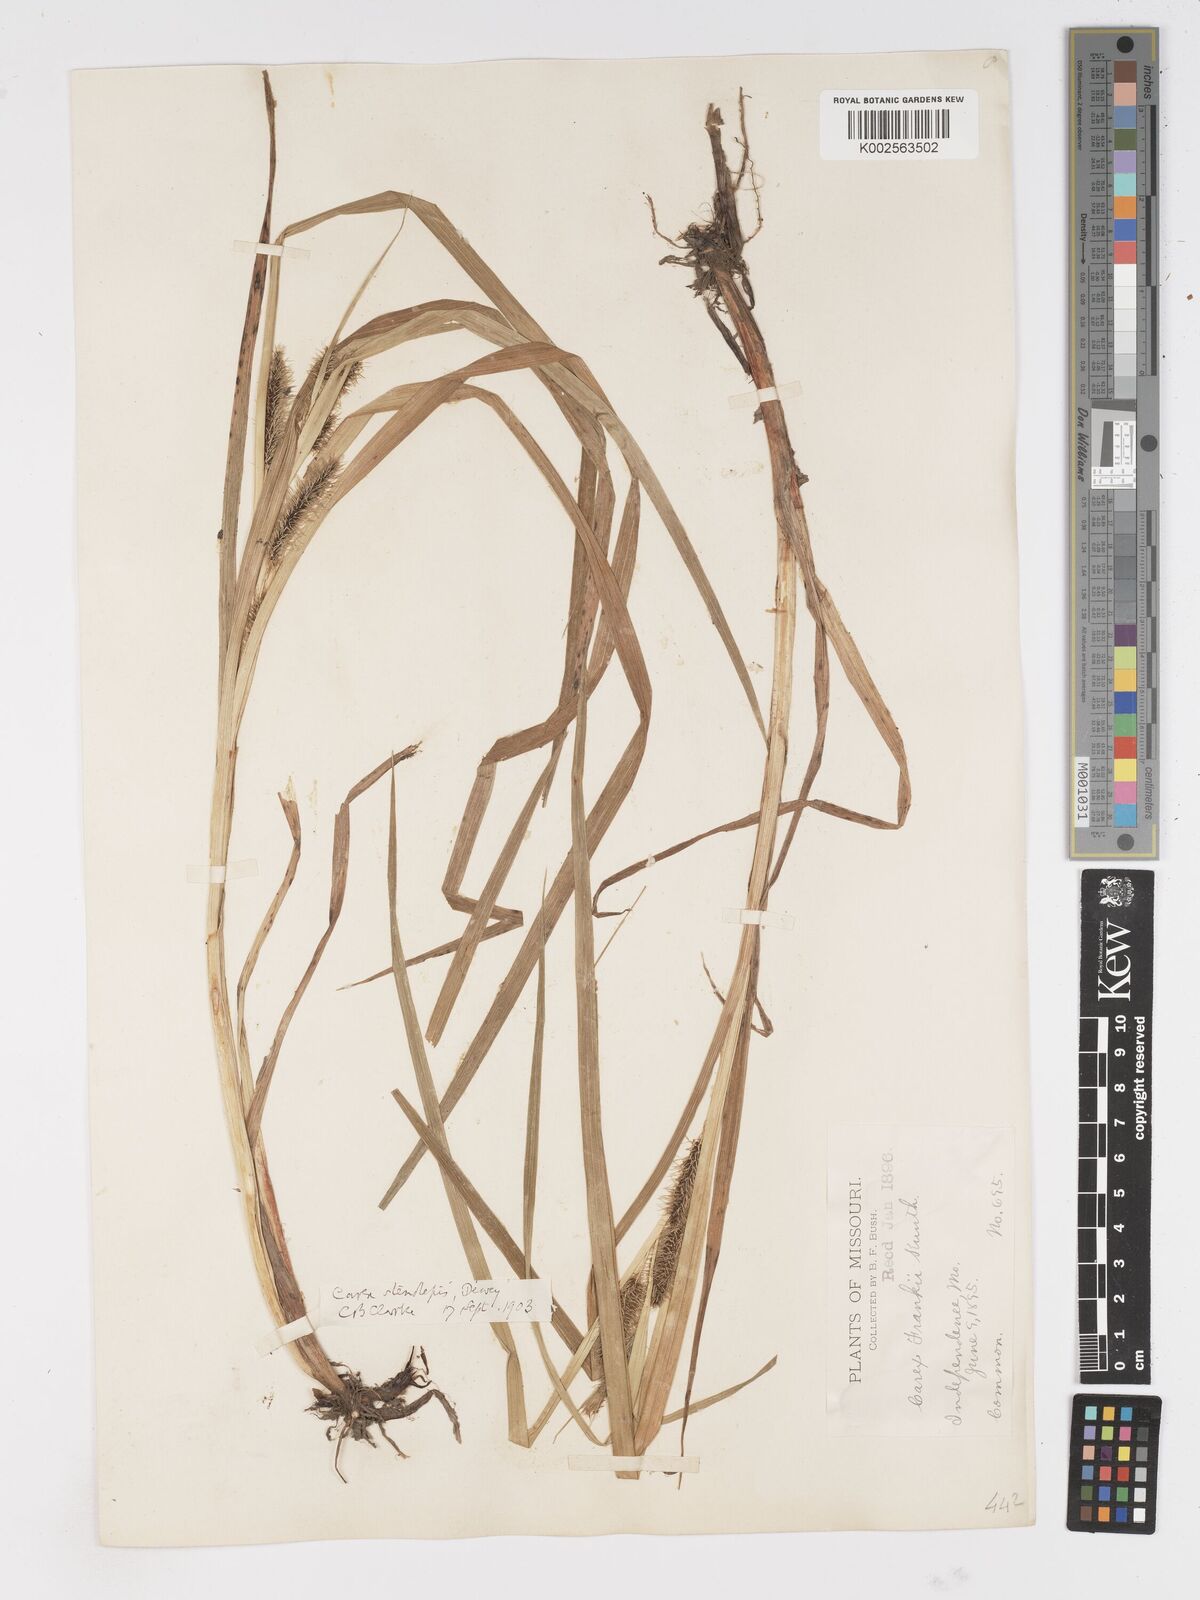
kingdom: Plantae
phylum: Tracheophyta
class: Liliopsida
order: Poales
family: Cyperaceae
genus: Carex
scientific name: Carex frankii
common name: Frank's sedge
